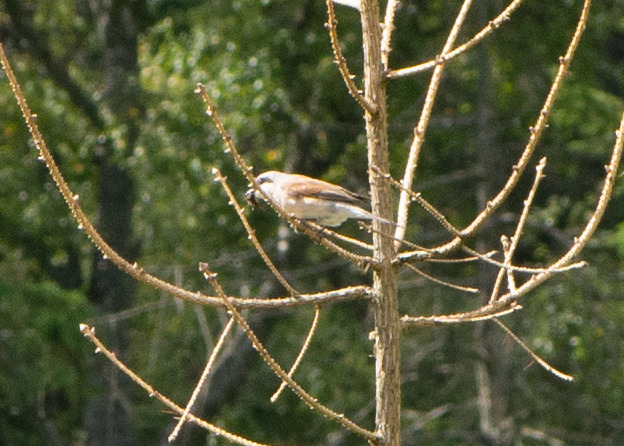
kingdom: Animalia
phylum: Chordata
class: Aves
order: Passeriformes
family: Laniidae
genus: Lanius
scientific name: Lanius collurio
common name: Rødrygget tornskade
